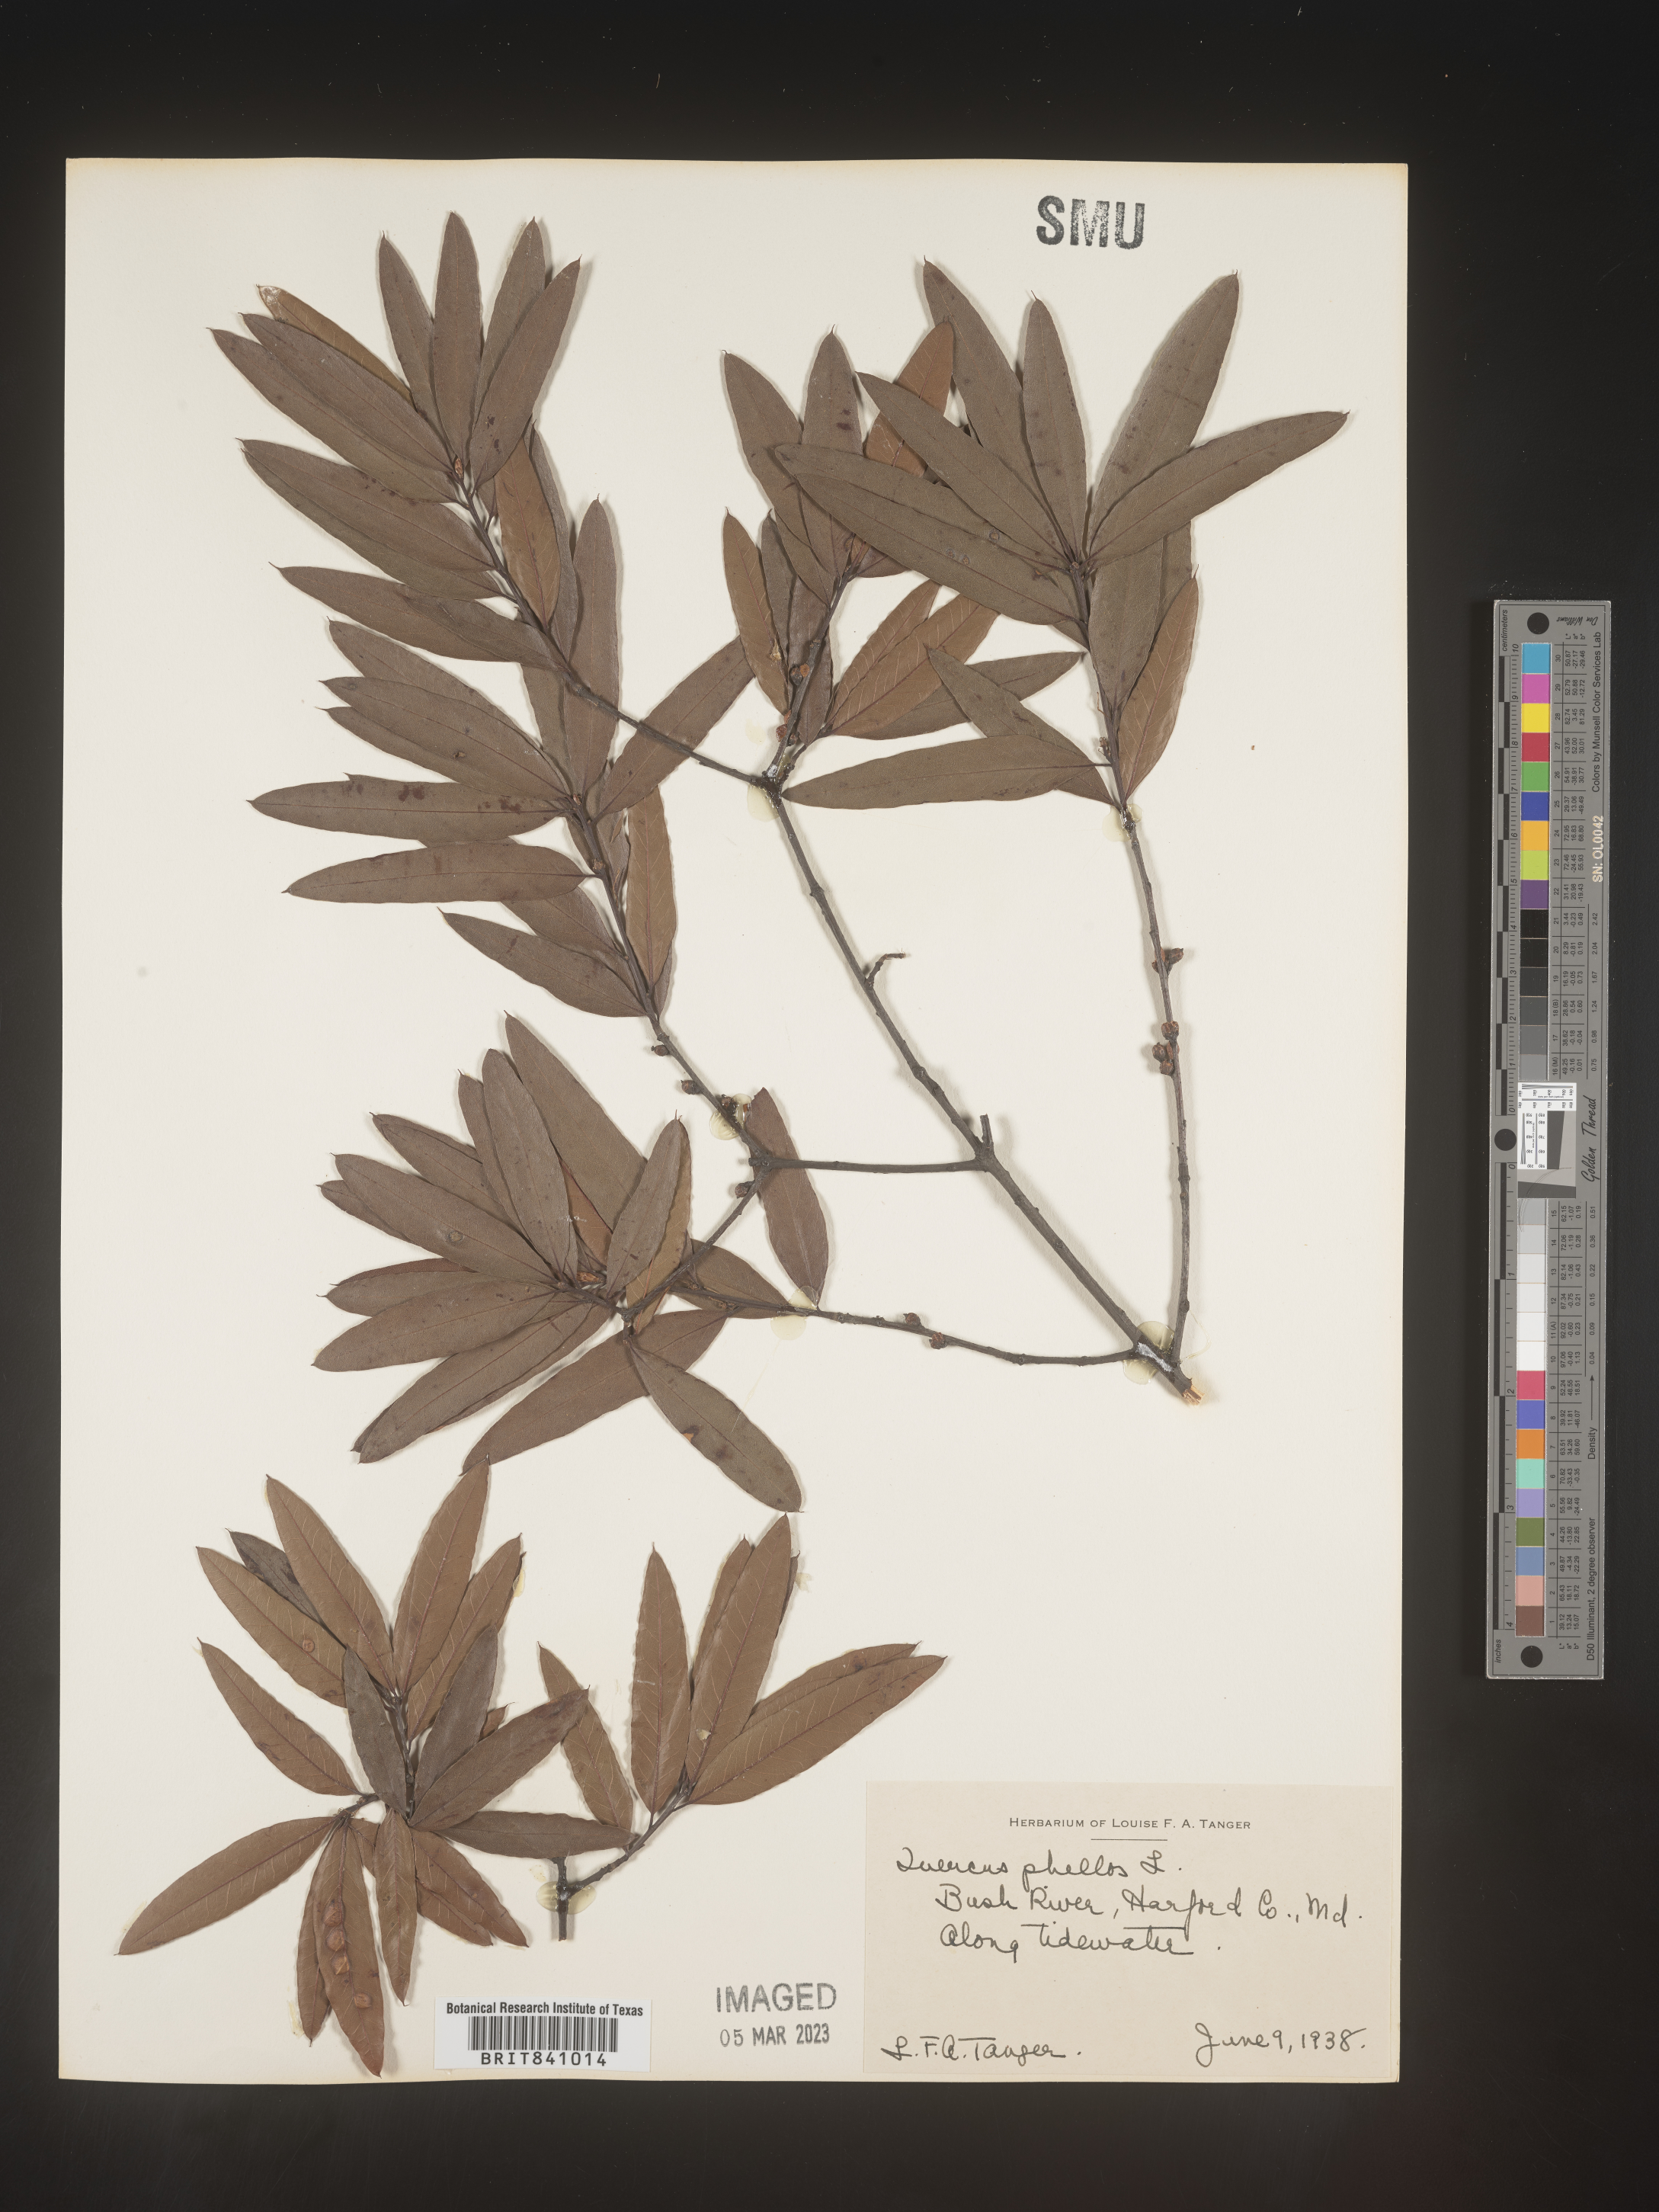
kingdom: Plantae
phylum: Tracheophyta
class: Magnoliopsida
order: Fagales
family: Fagaceae
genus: Quercus
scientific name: Quercus phellos
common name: Willow oak
